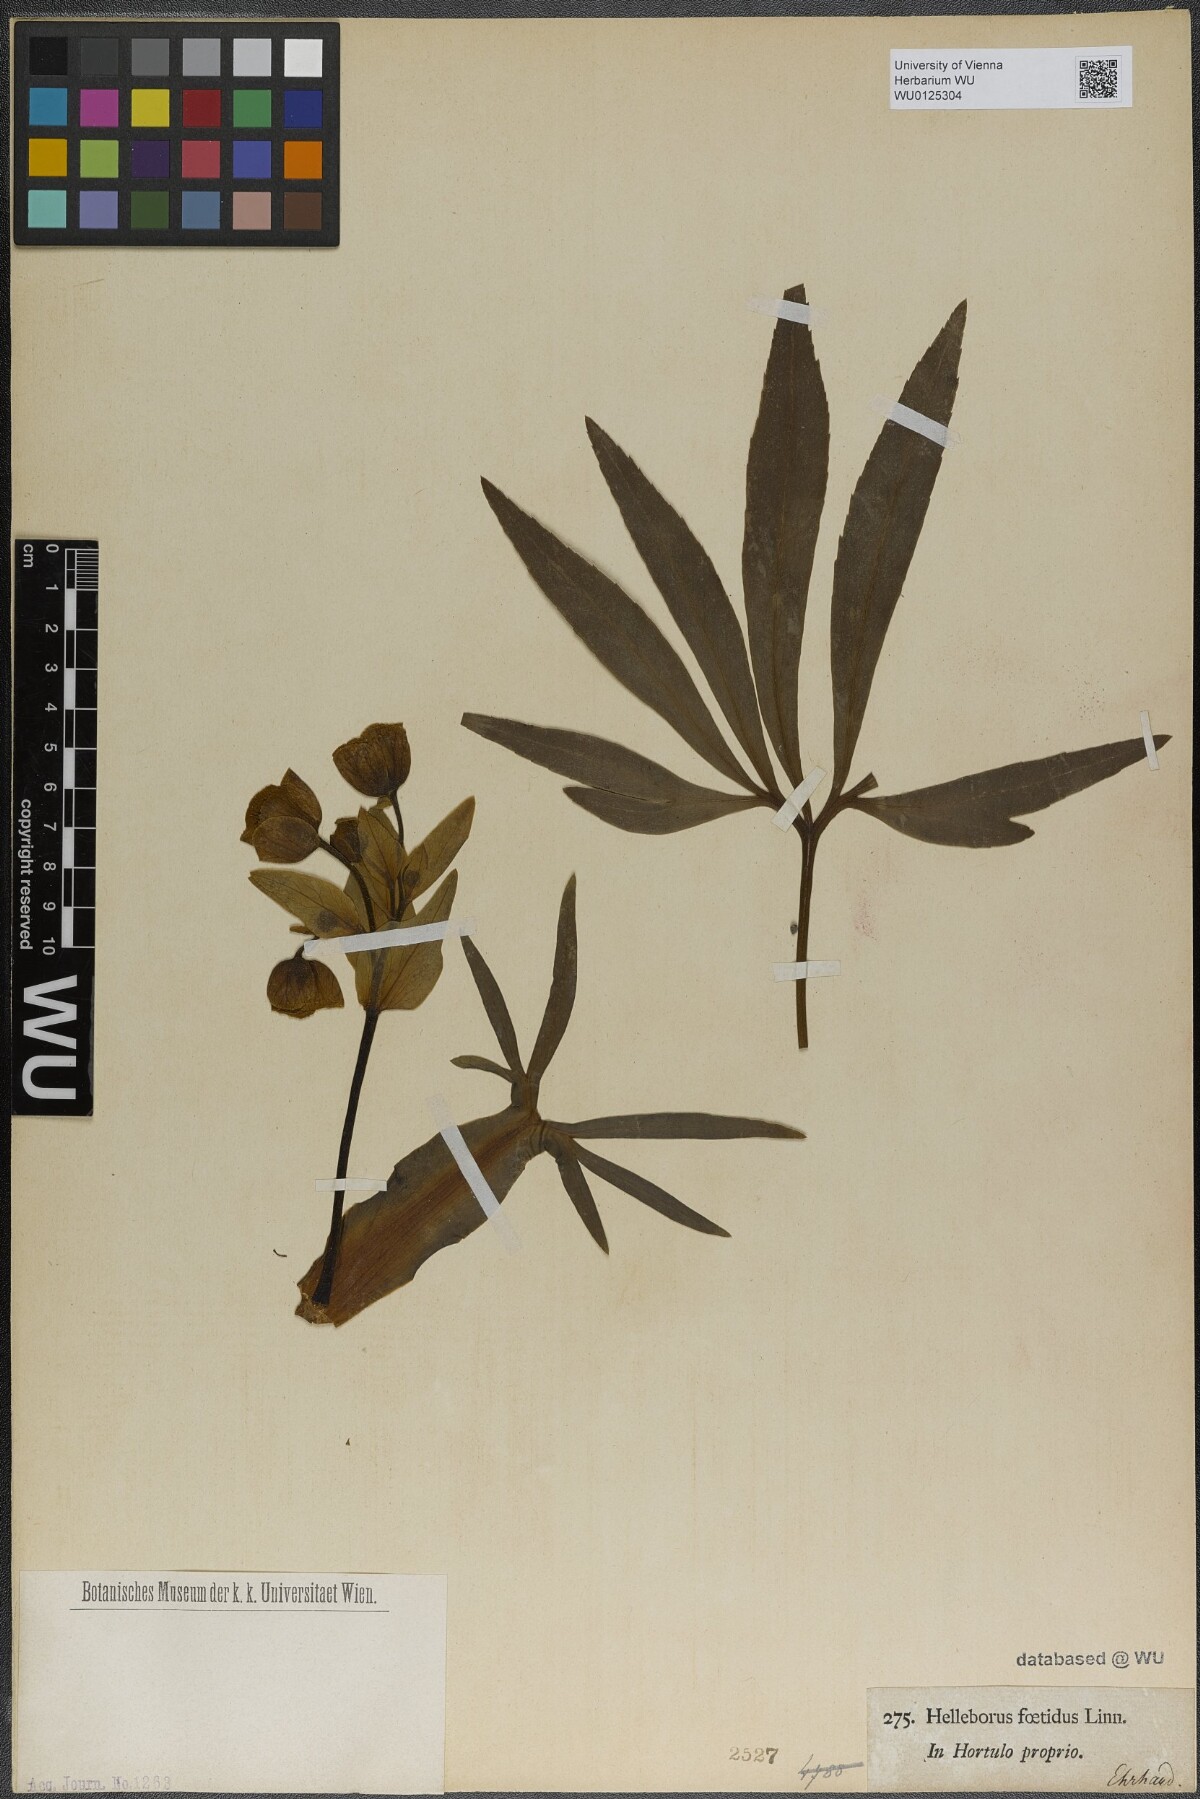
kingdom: Plantae
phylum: Tracheophyta
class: Magnoliopsida
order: Ranunculales
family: Ranunculaceae
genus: Helleborus
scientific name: Helleborus foetidus
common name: Stinking hellebore
